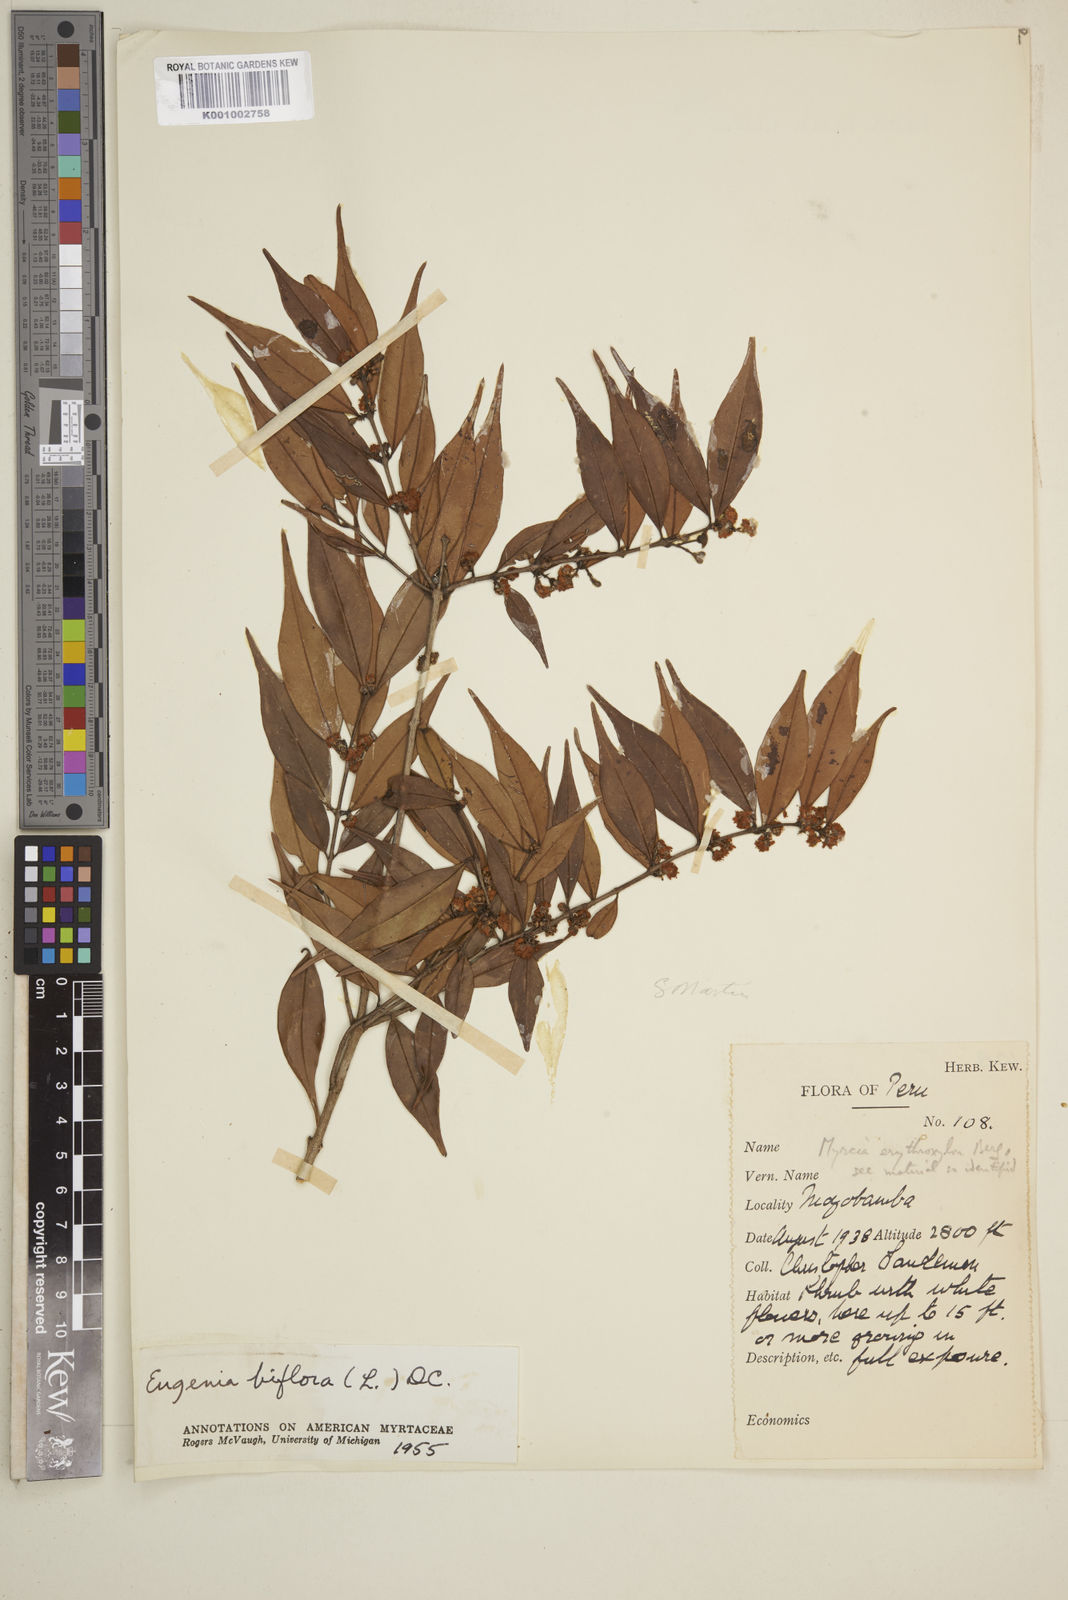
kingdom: Plantae
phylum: Tracheophyta
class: Magnoliopsida
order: Myrtales
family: Myrtaceae
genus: Eugenia
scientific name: Eugenia biflora
